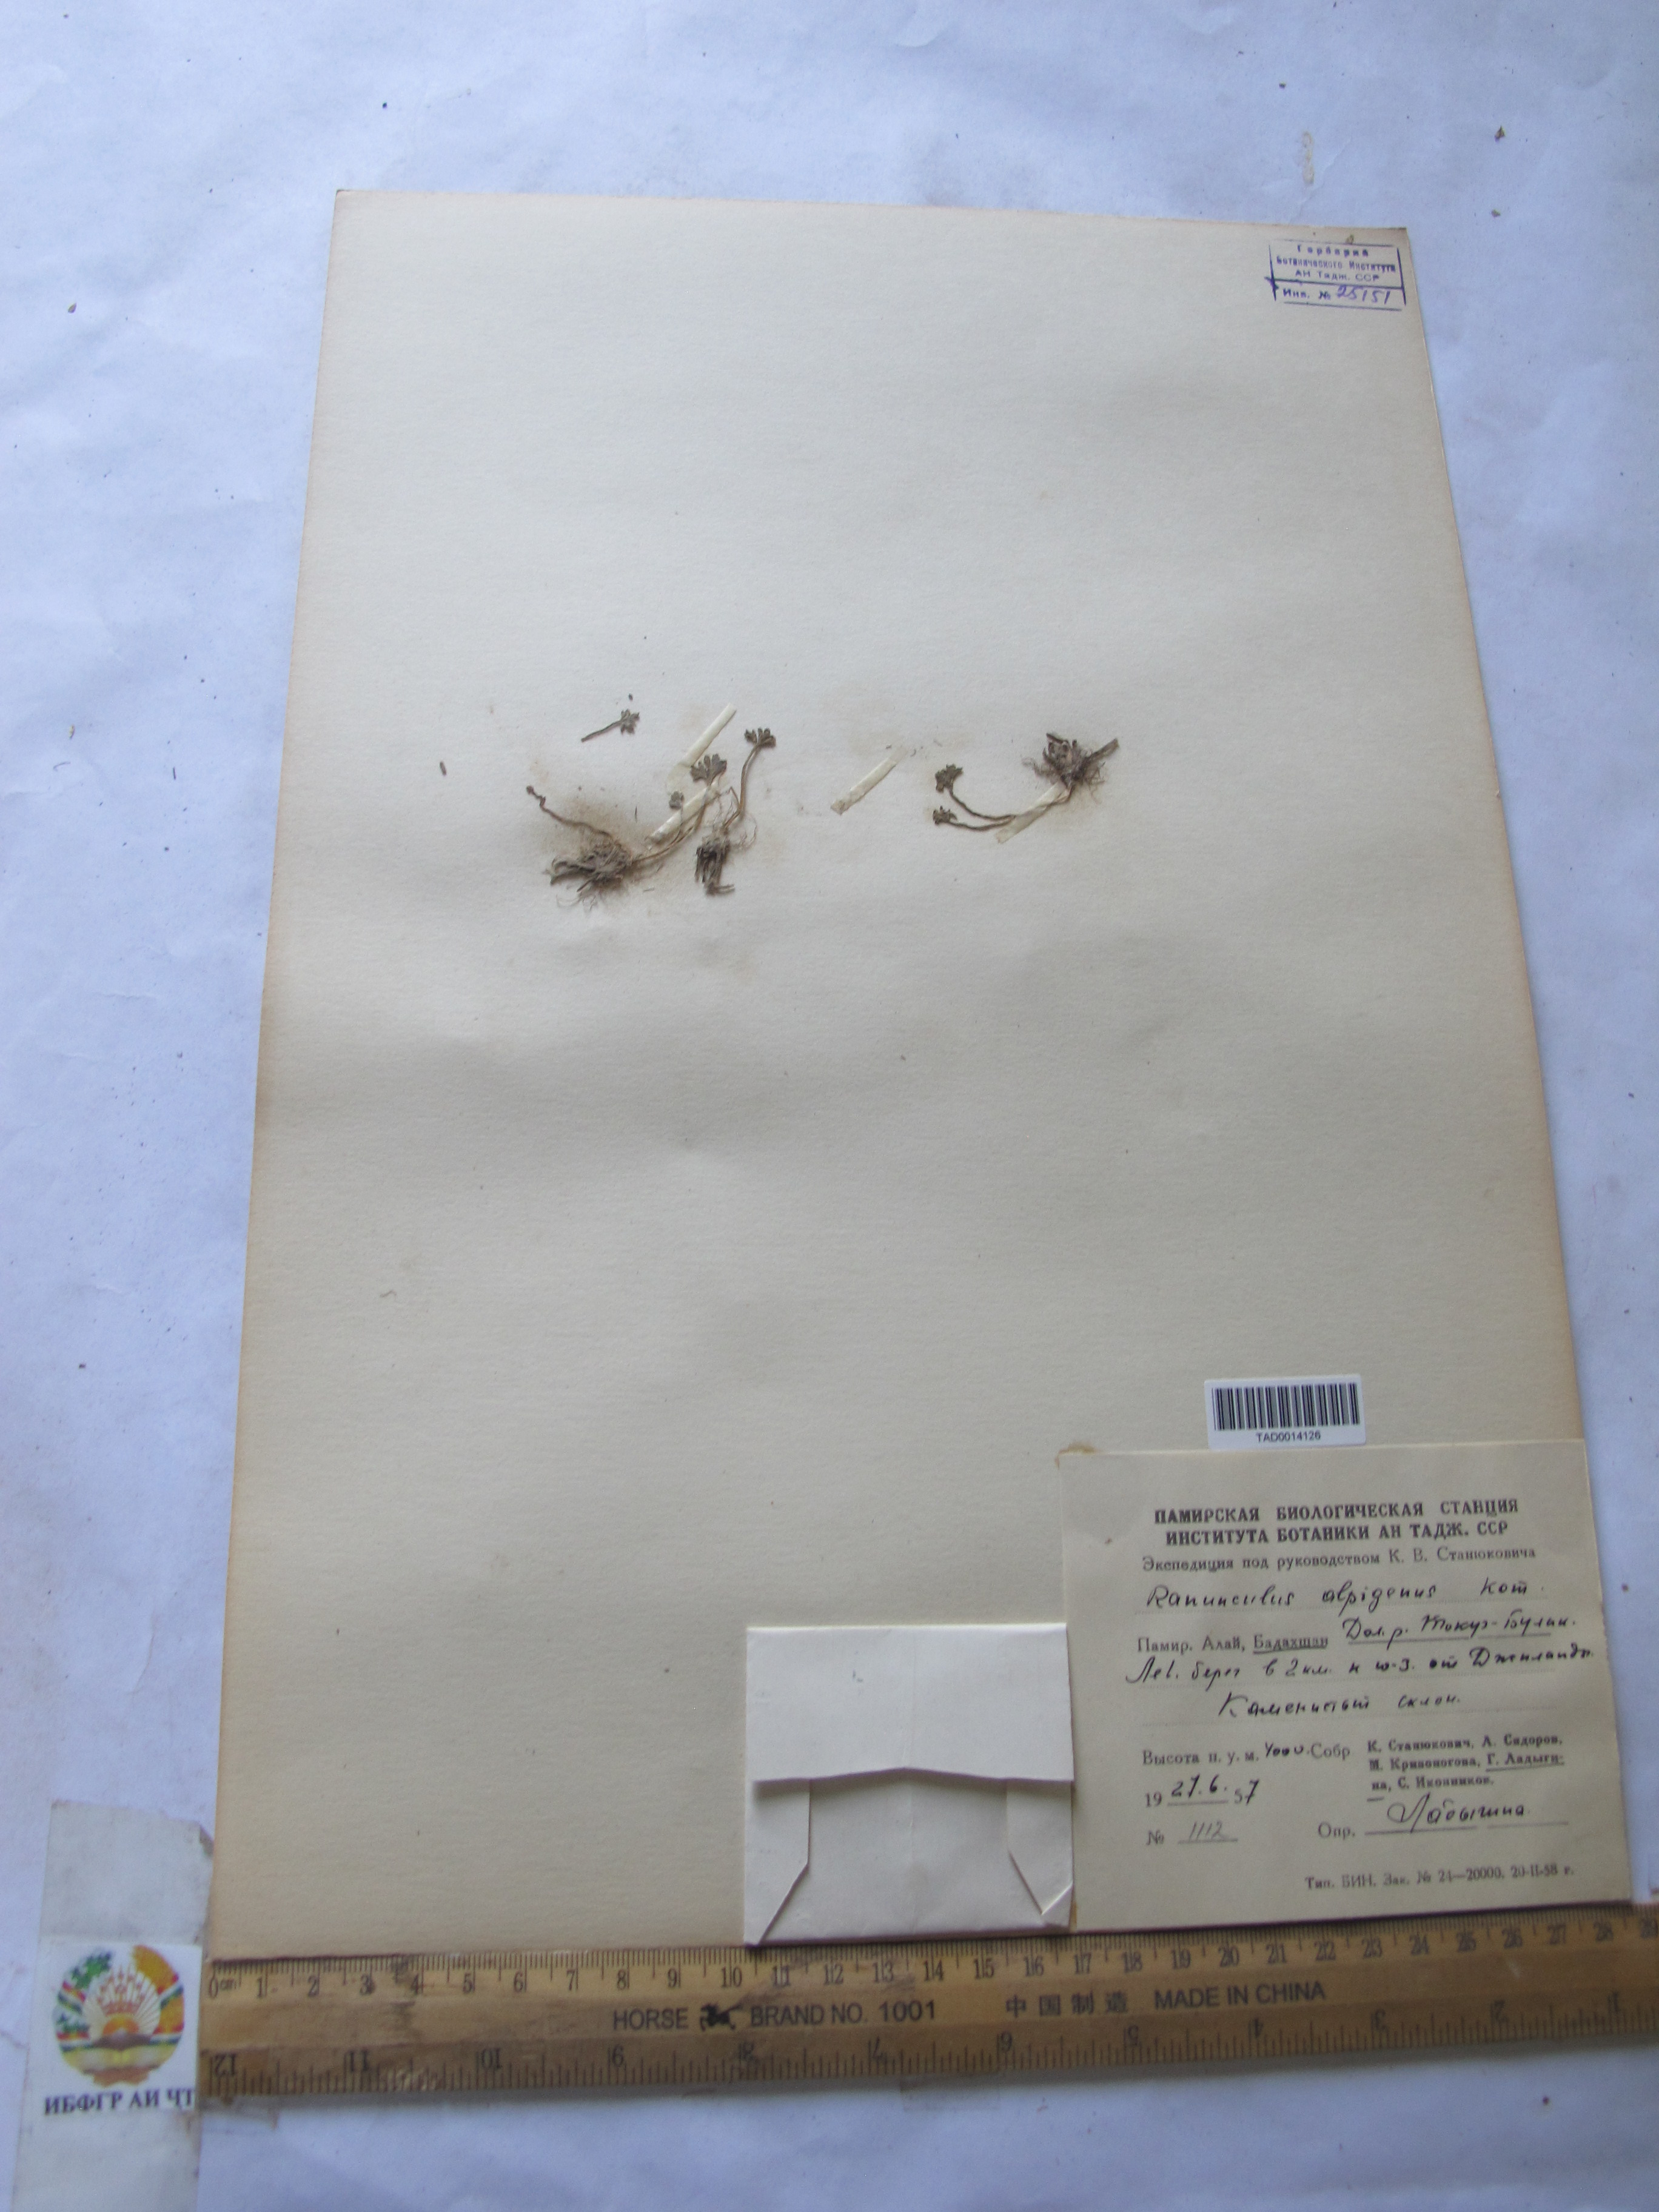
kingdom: Plantae
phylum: Tracheophyta
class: Magnoliopsida
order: Ranunculales
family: Ranunculaceae
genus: Ranunculus
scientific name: Ranunculus alpigenus
